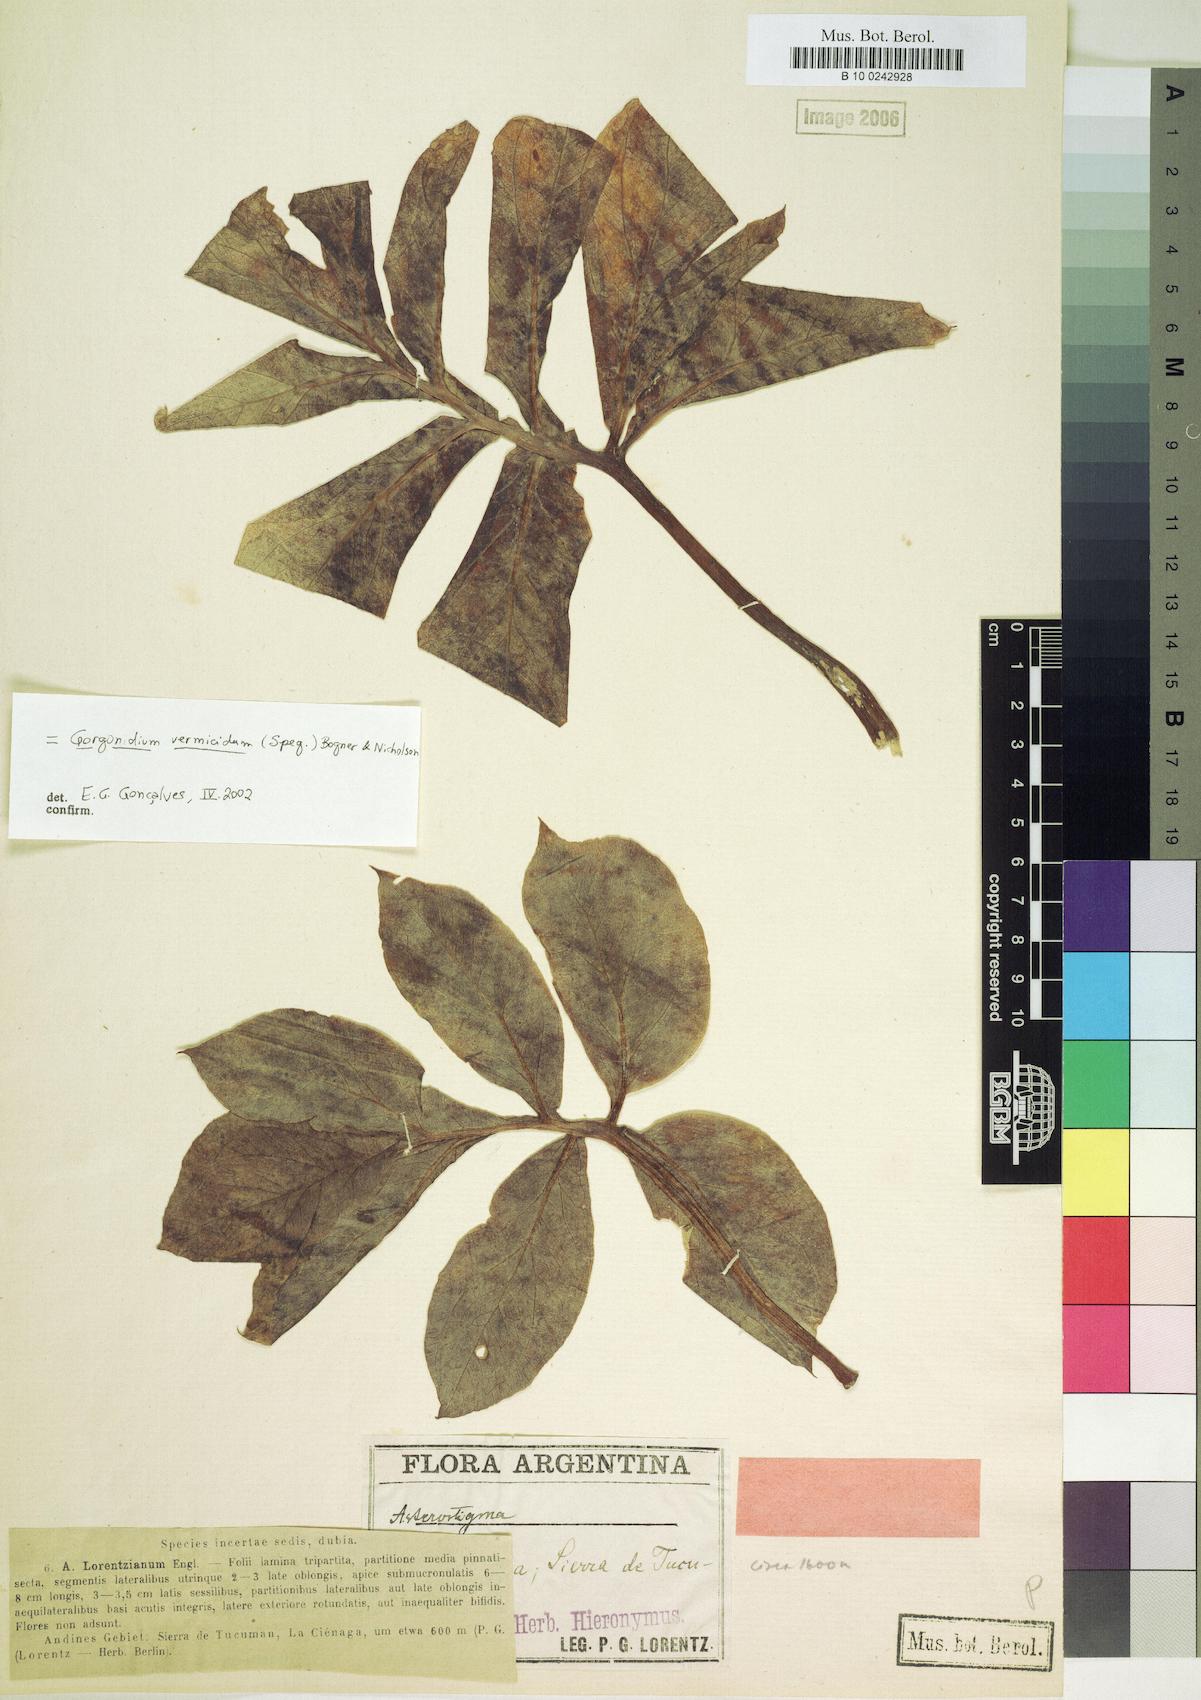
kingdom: Plantae
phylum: Tracheophyta
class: Liliopsida
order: Alismatales
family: Araceae
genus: Gorgonidium
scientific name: Gorgonidium vermicidum
